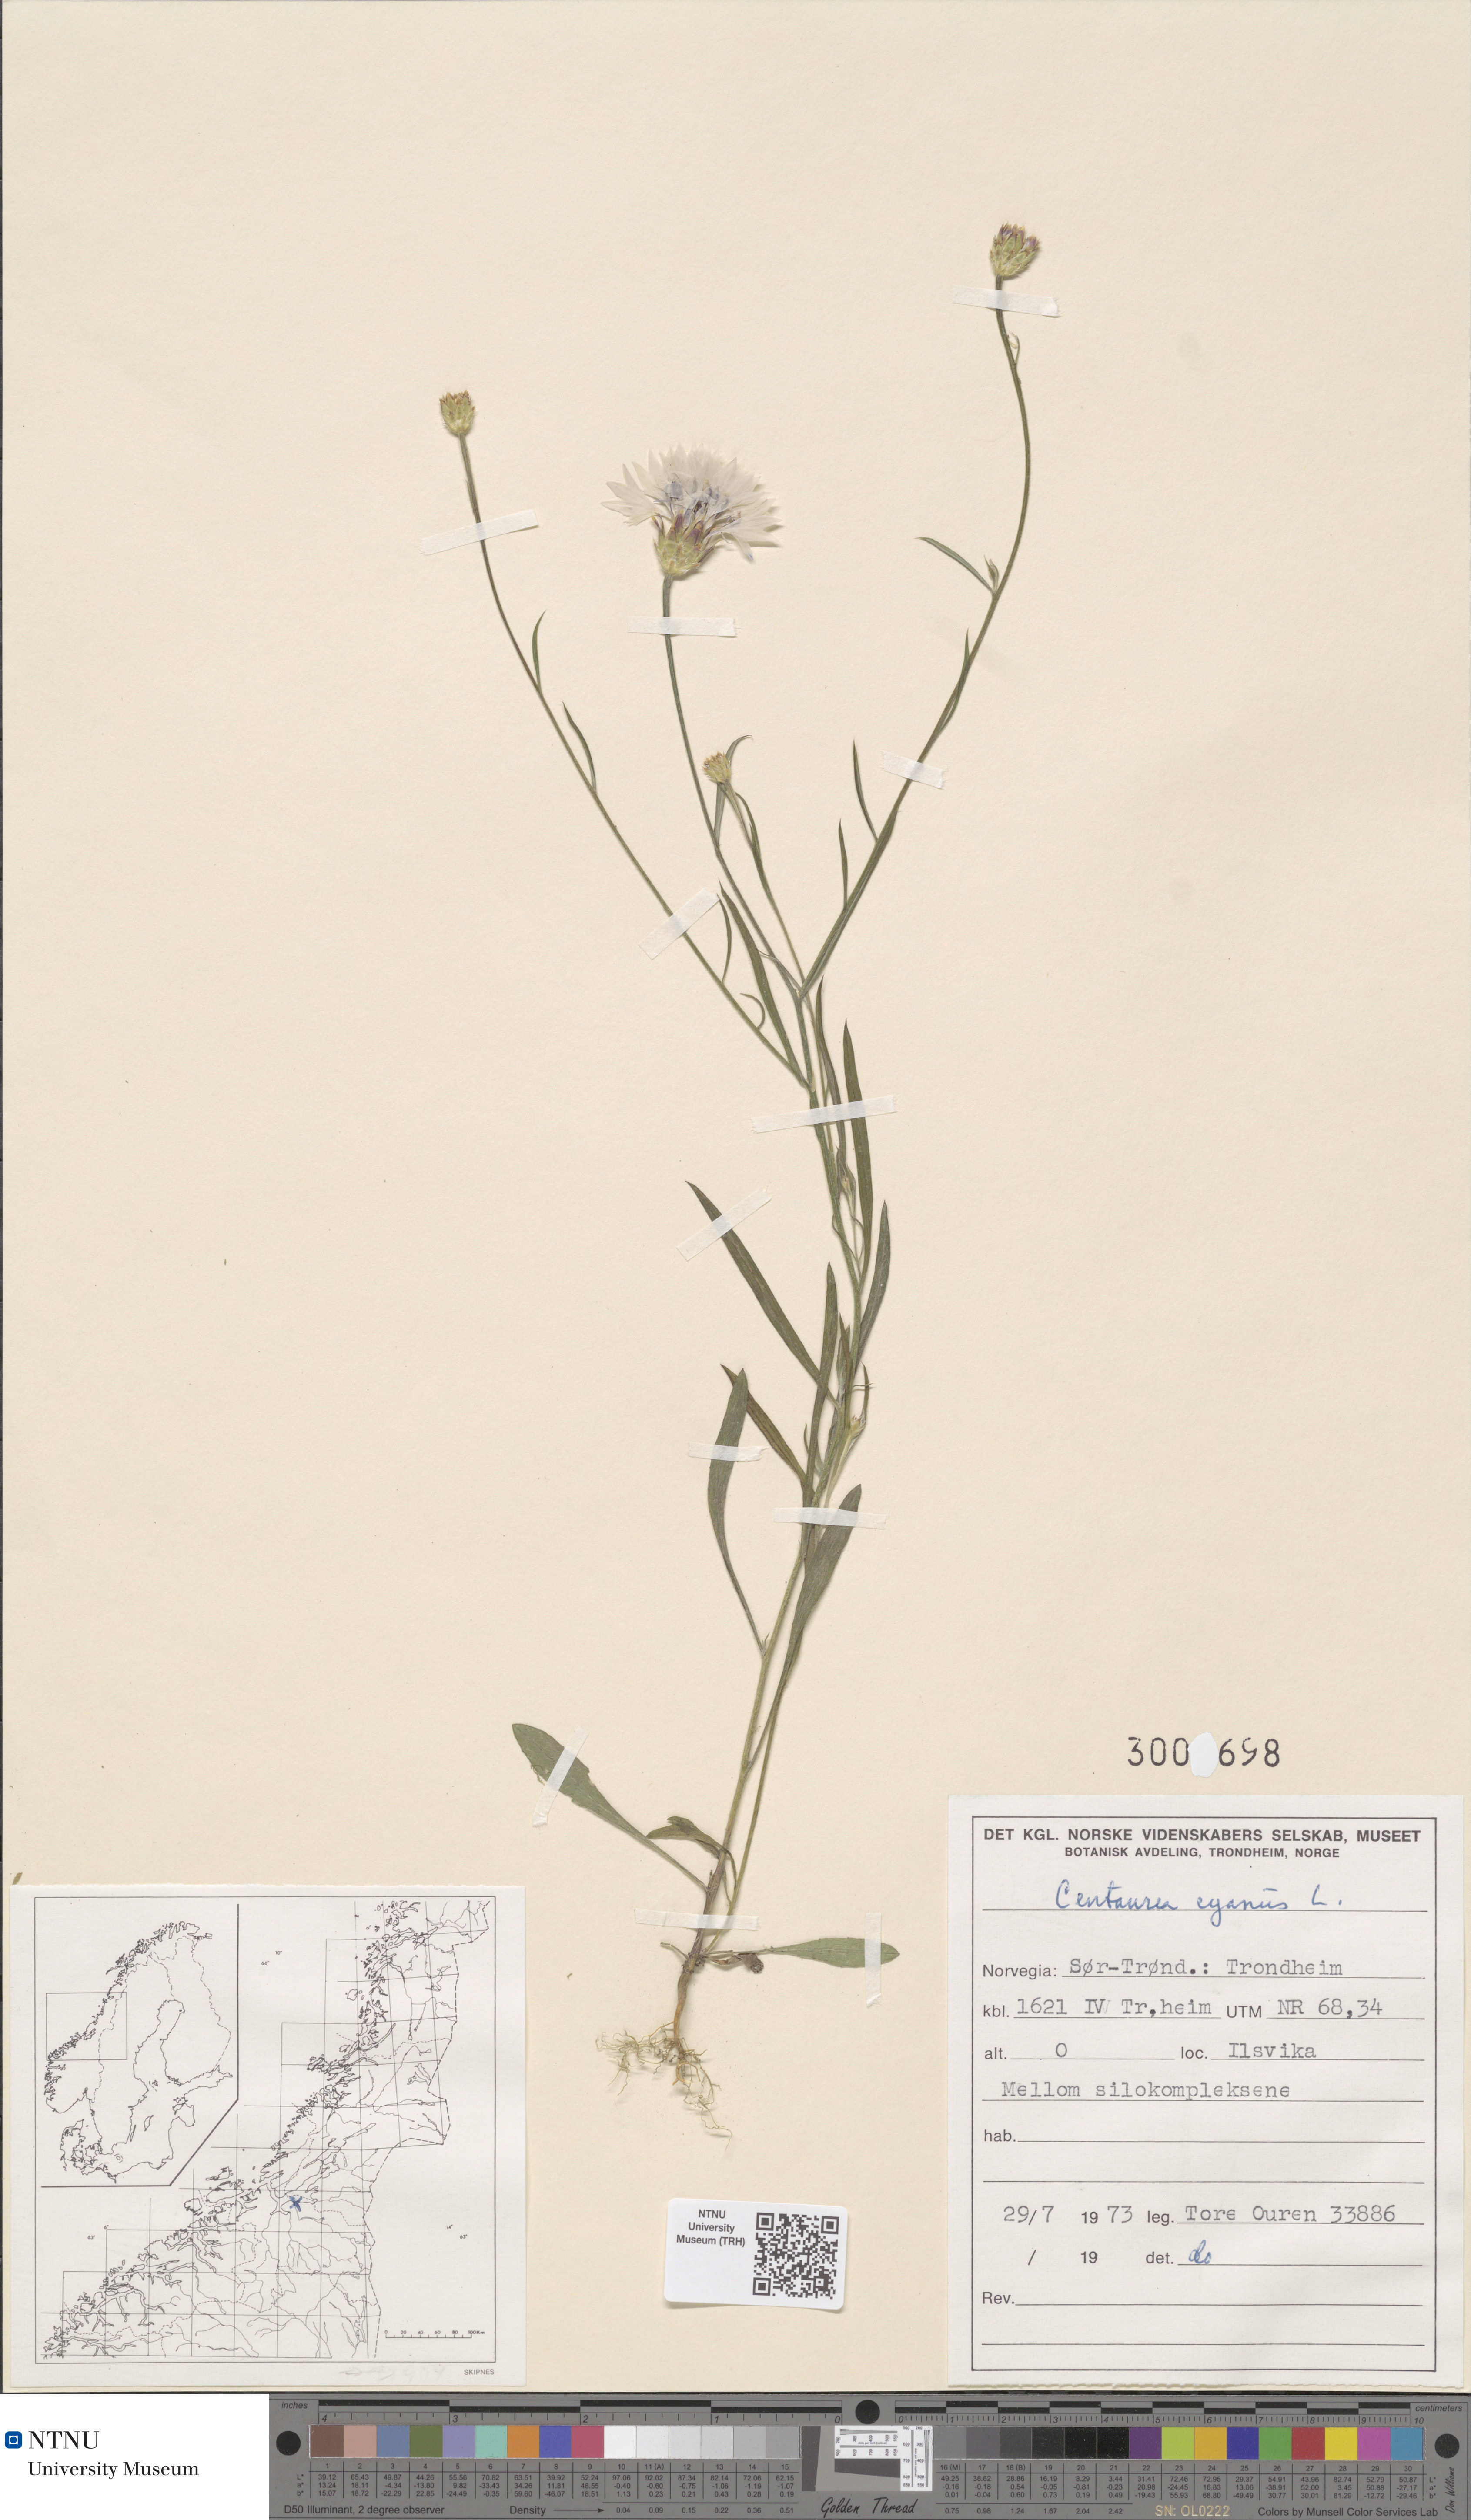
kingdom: Plantae
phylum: Tracheophyta
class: Magnoliopsida
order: Asterales
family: Asteraceae
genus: Centaurea
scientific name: Centaurea cyanus
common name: Cornflower
